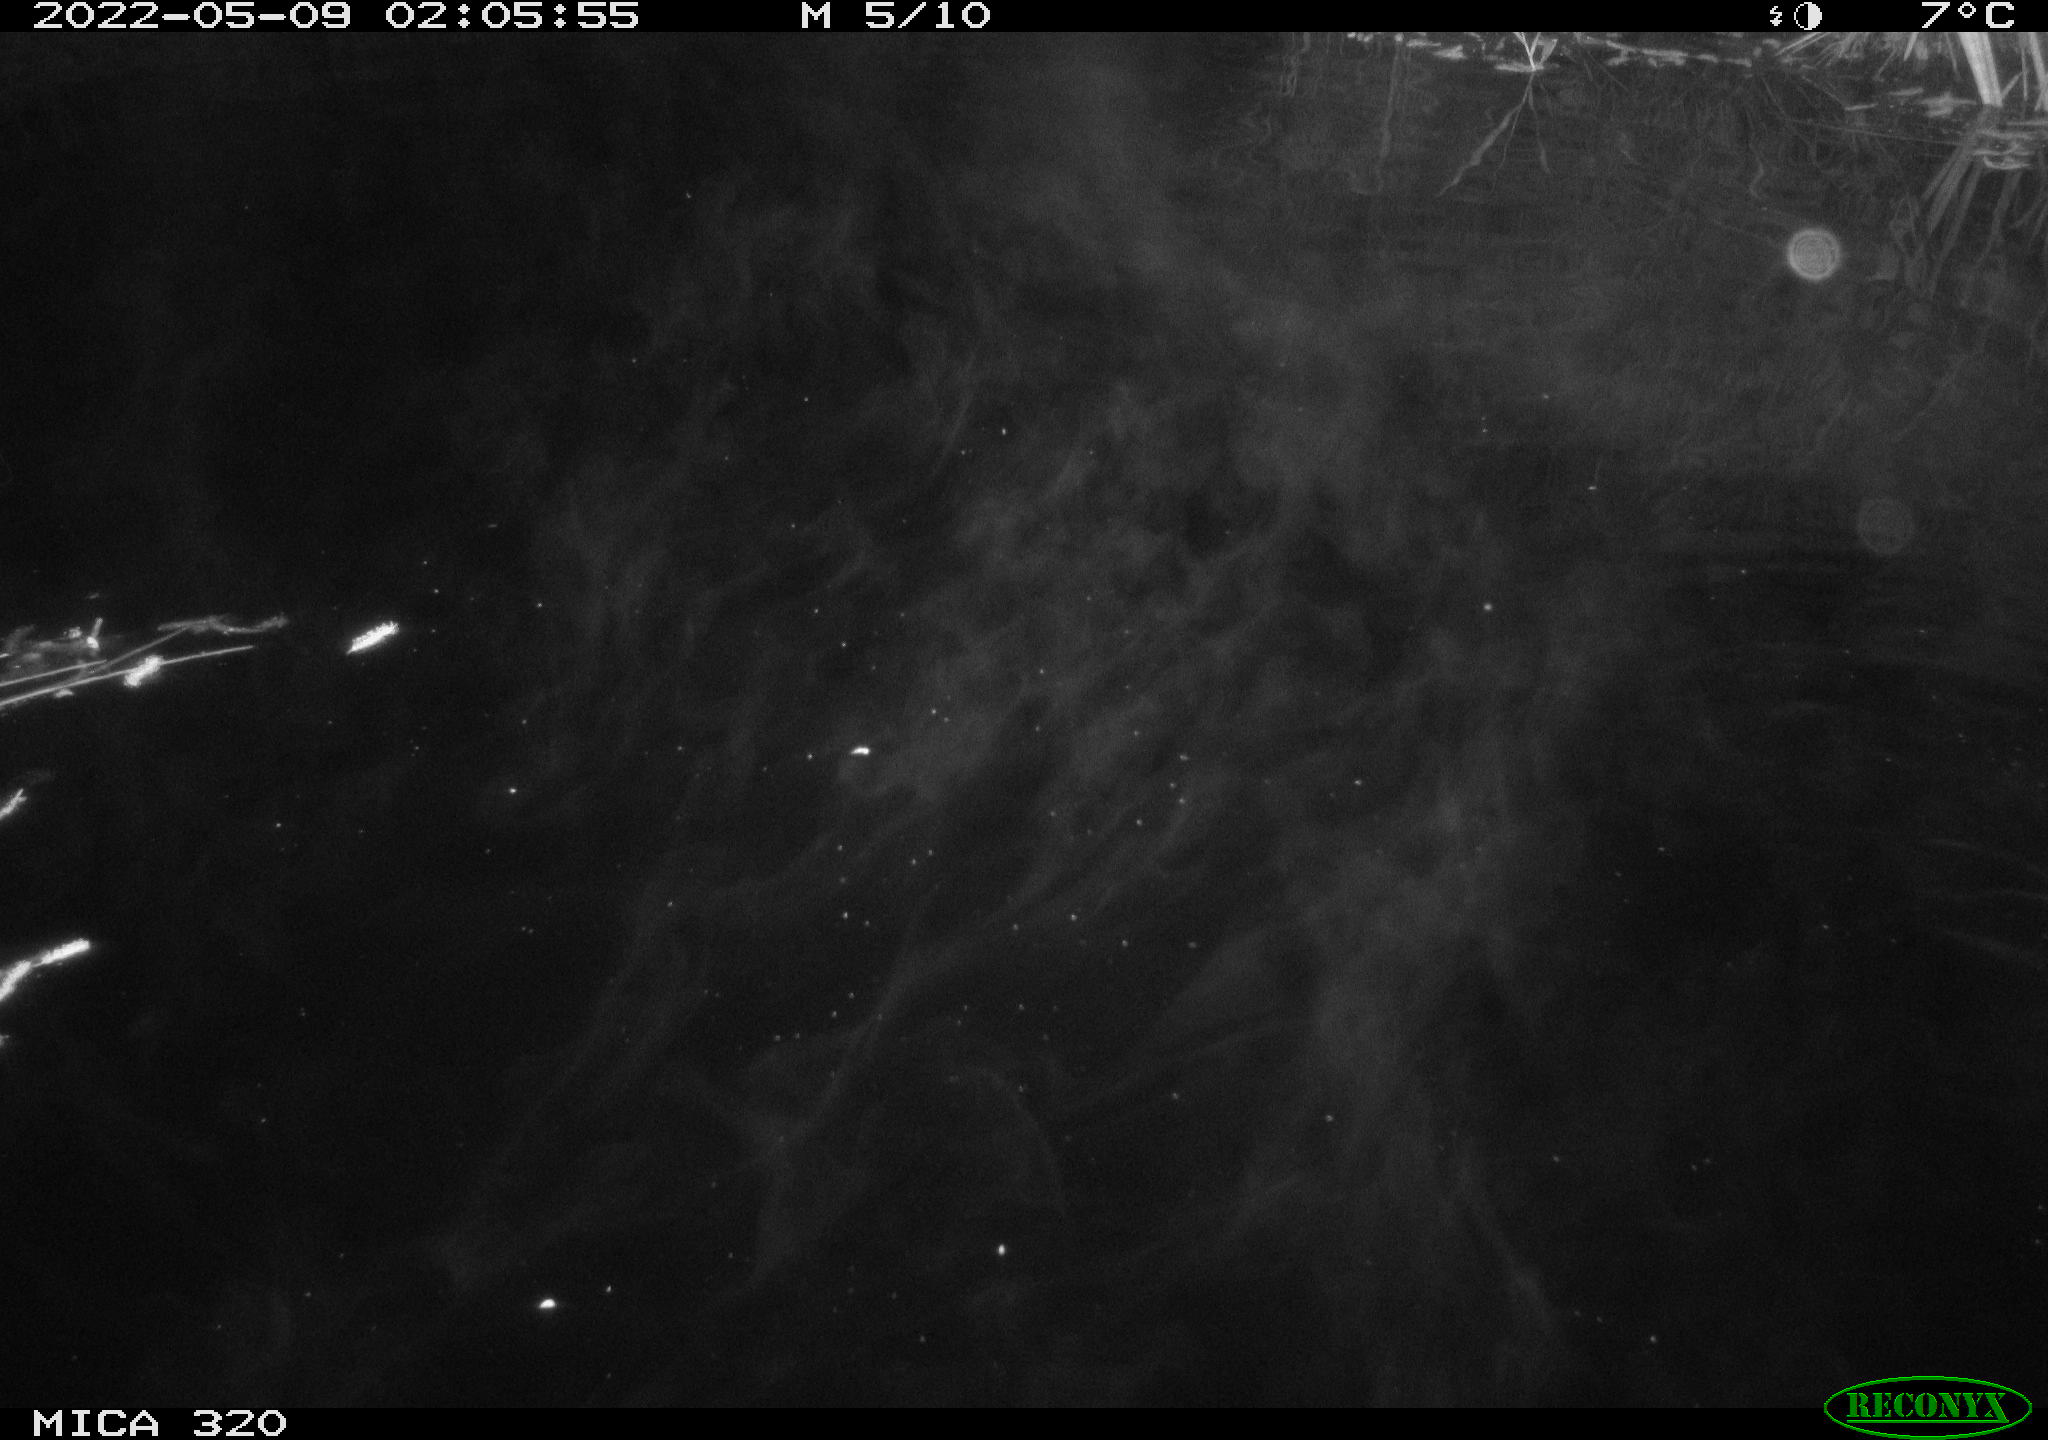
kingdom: Animalia
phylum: Chordata
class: Aves
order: Anseriformes
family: Anatidae
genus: Anas
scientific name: Anas platyrhynchos
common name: Mallard
